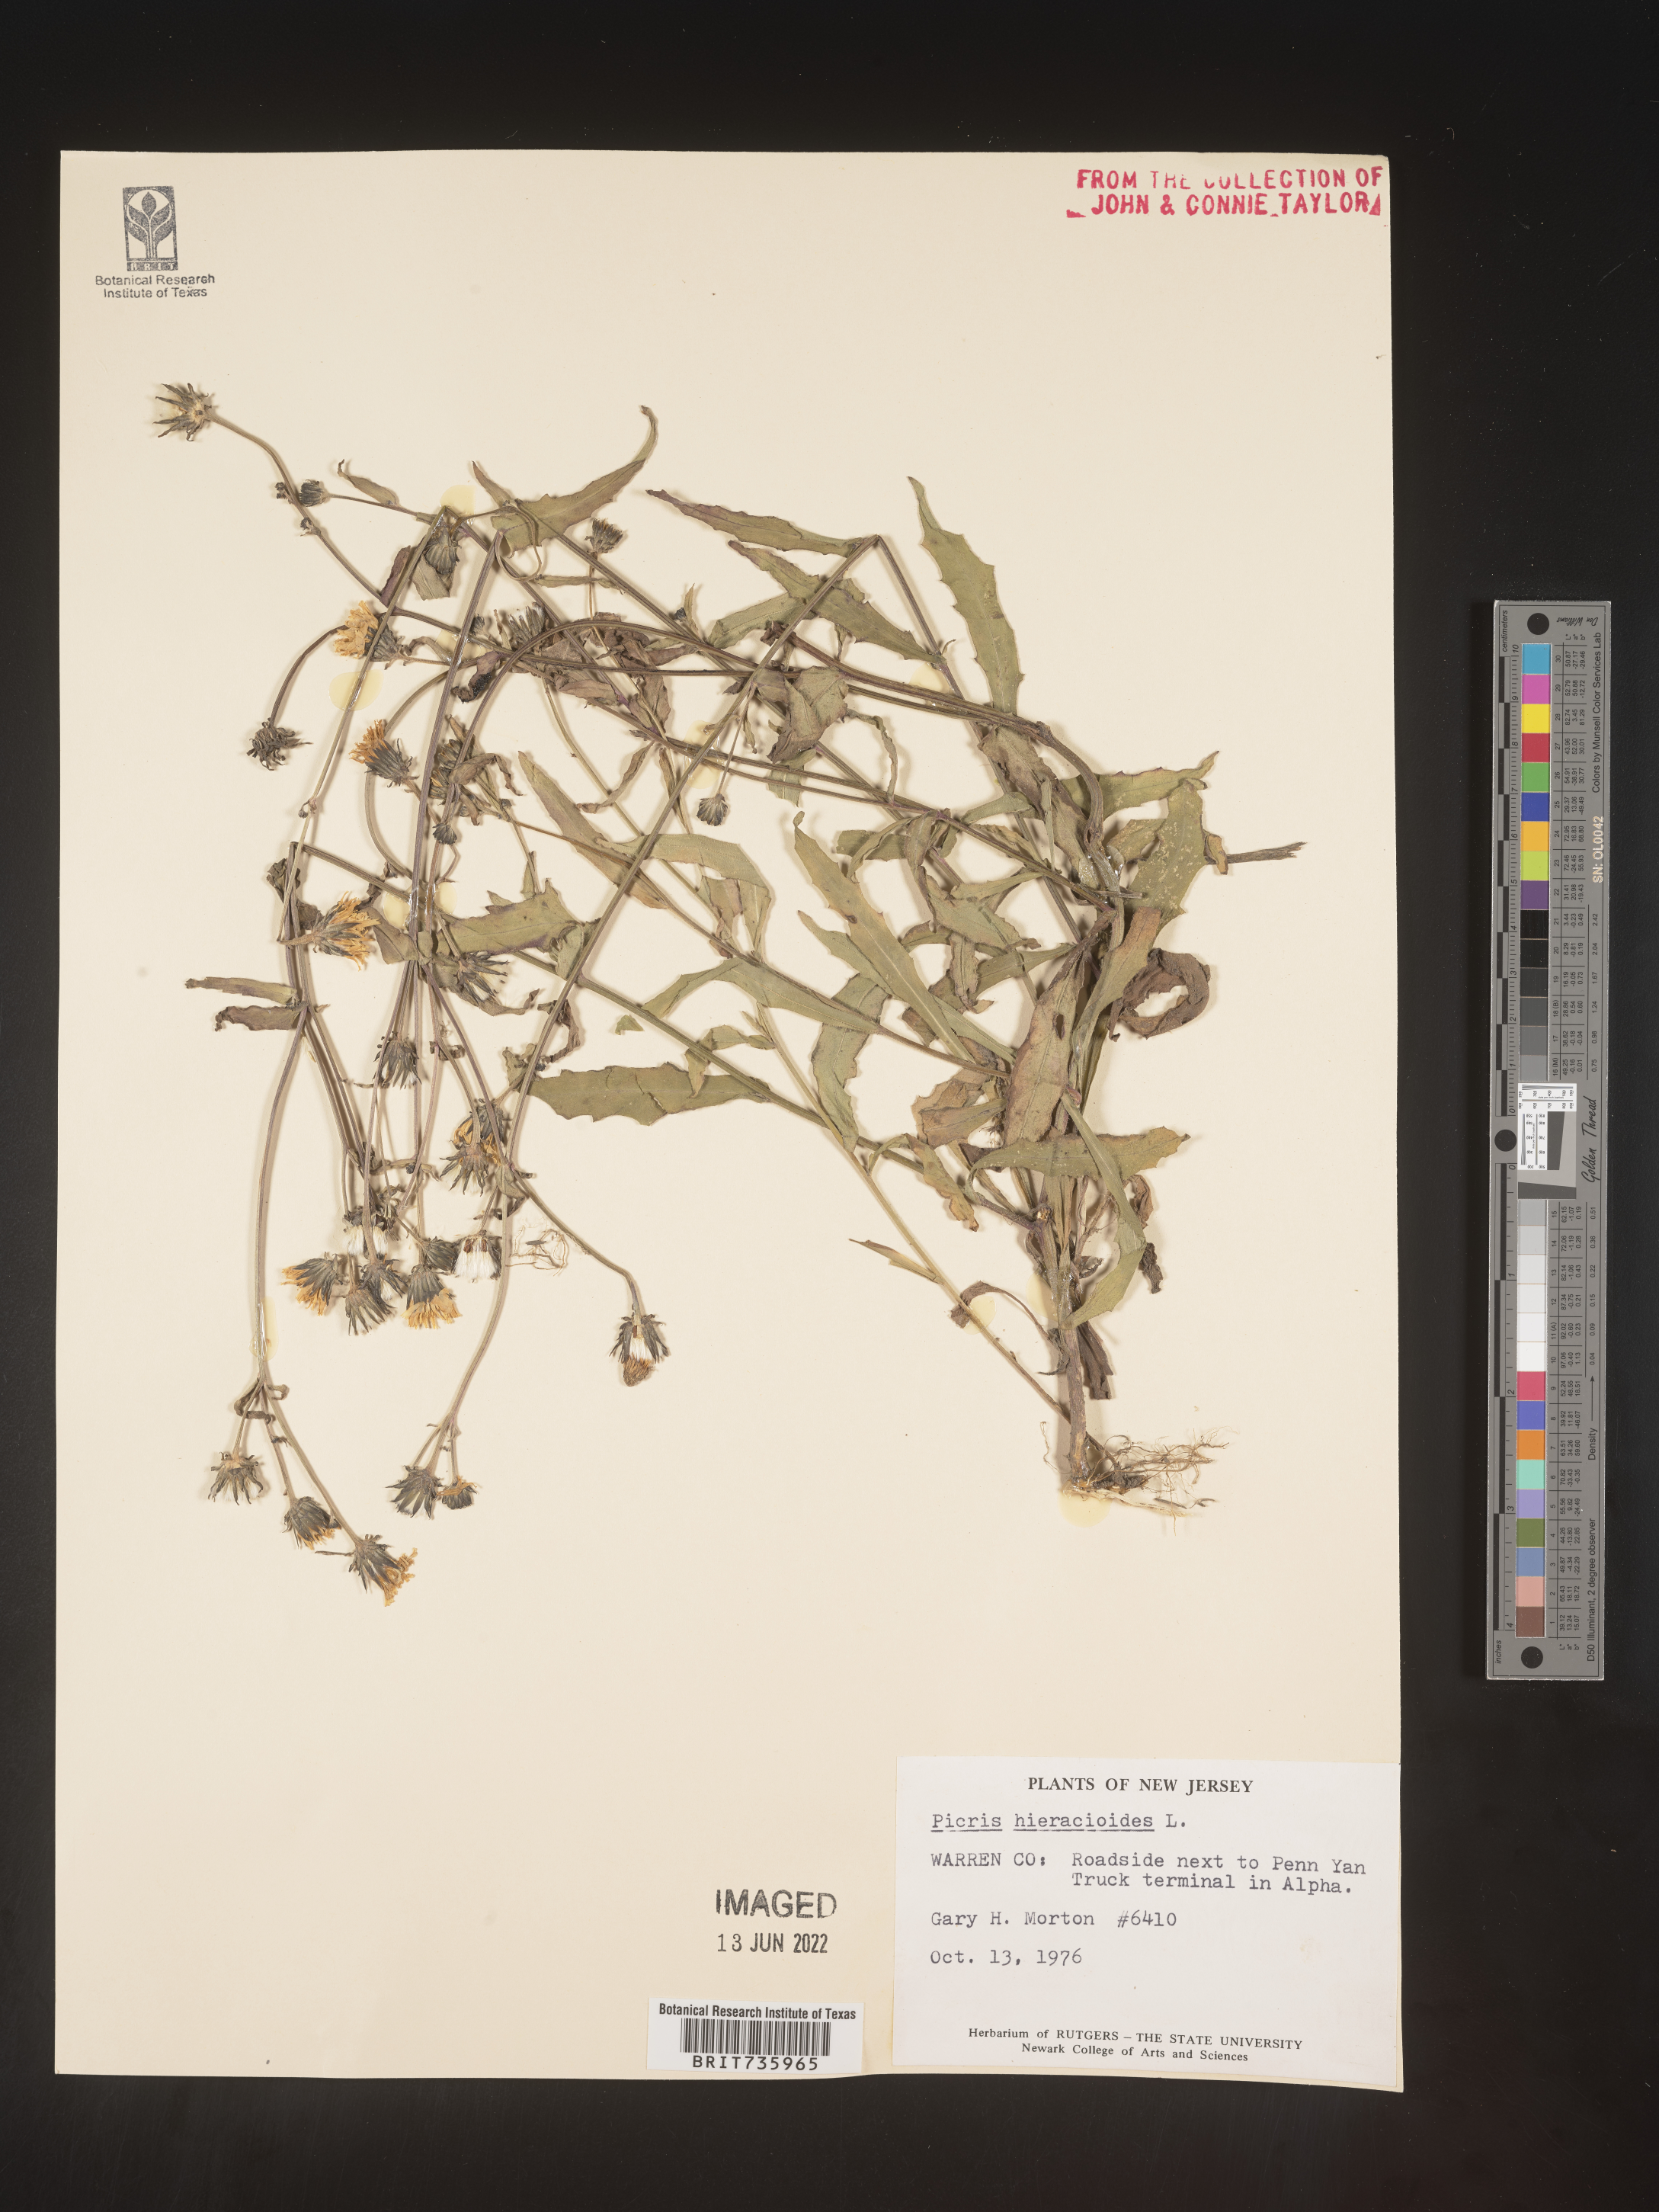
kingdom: Plantae
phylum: Tracheophyta
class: Magnoliopsida
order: Asterales
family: Asteraceae
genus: Picris
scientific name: Picris hieracioides
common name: Hawkweed oxtongue
